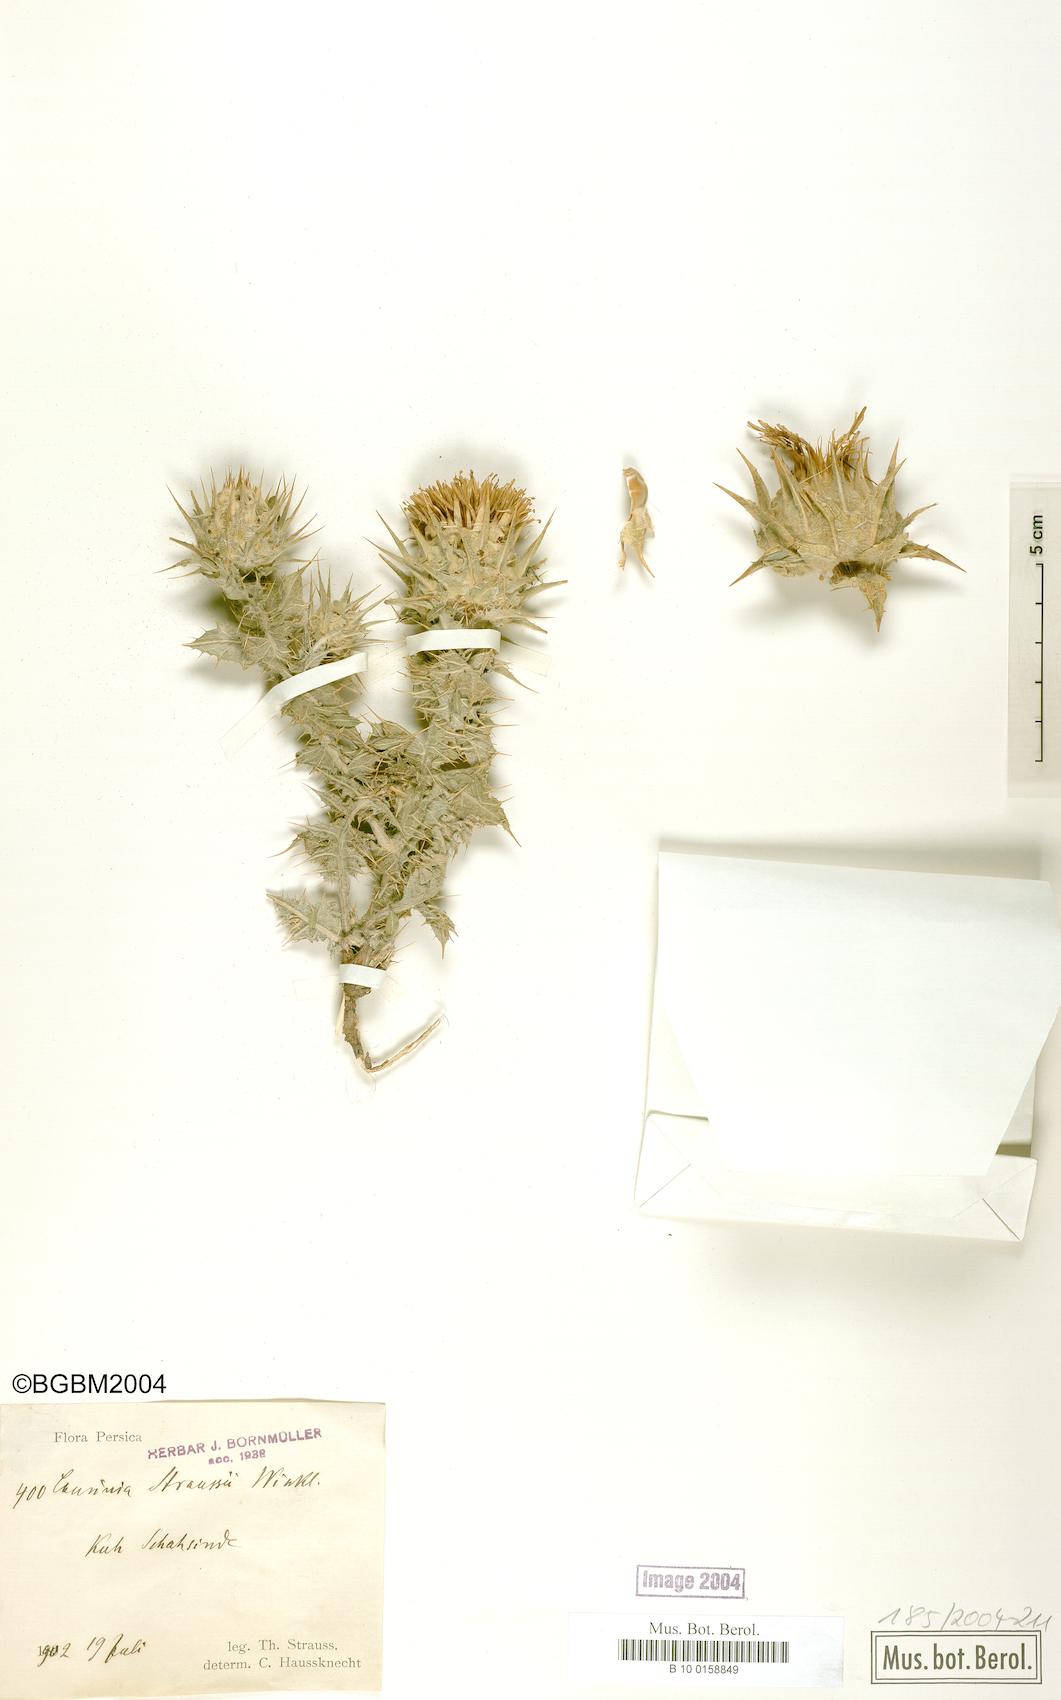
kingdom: Plantae
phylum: Tracheophyta
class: Magnoliopsida
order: Asterales
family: Asteraceae
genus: Cousinia
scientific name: Cousinia inflata
